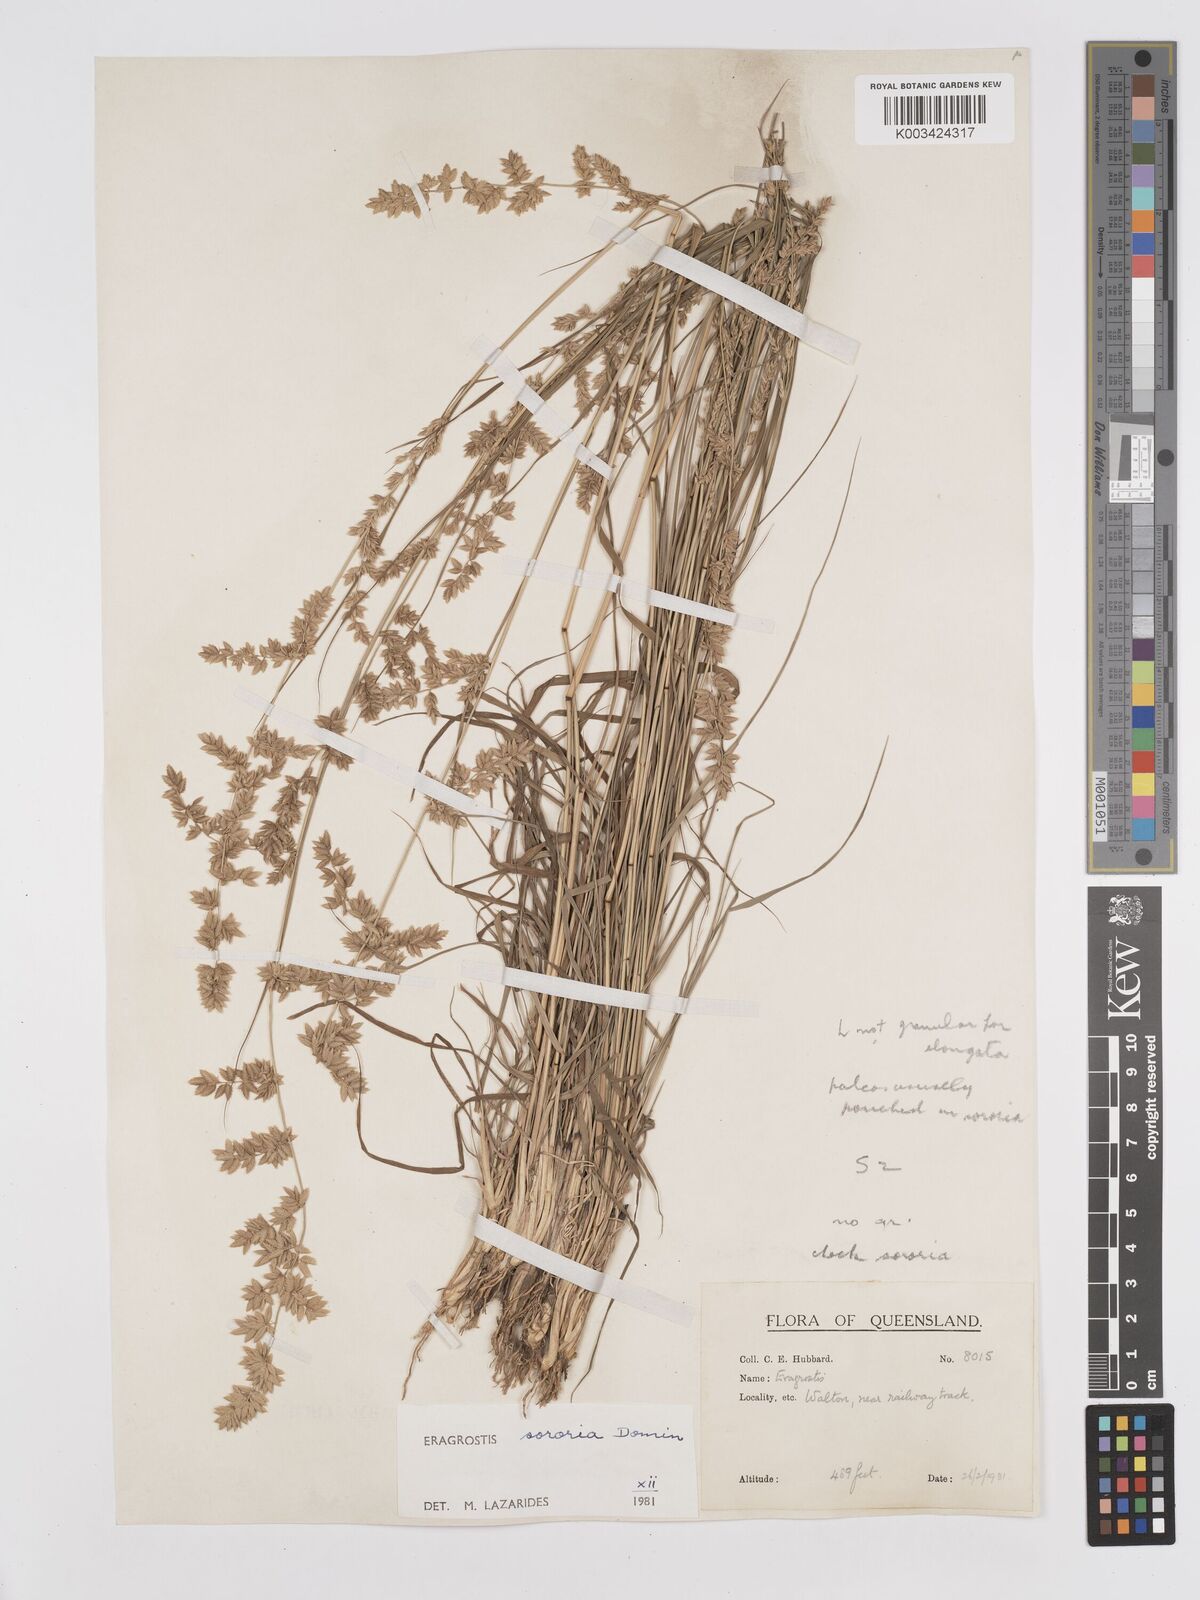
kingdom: Plantae
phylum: Tracheophyta
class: Liliopsida
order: Poales
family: Poaceae
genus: Eragrostis
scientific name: Eragrostis sororia
